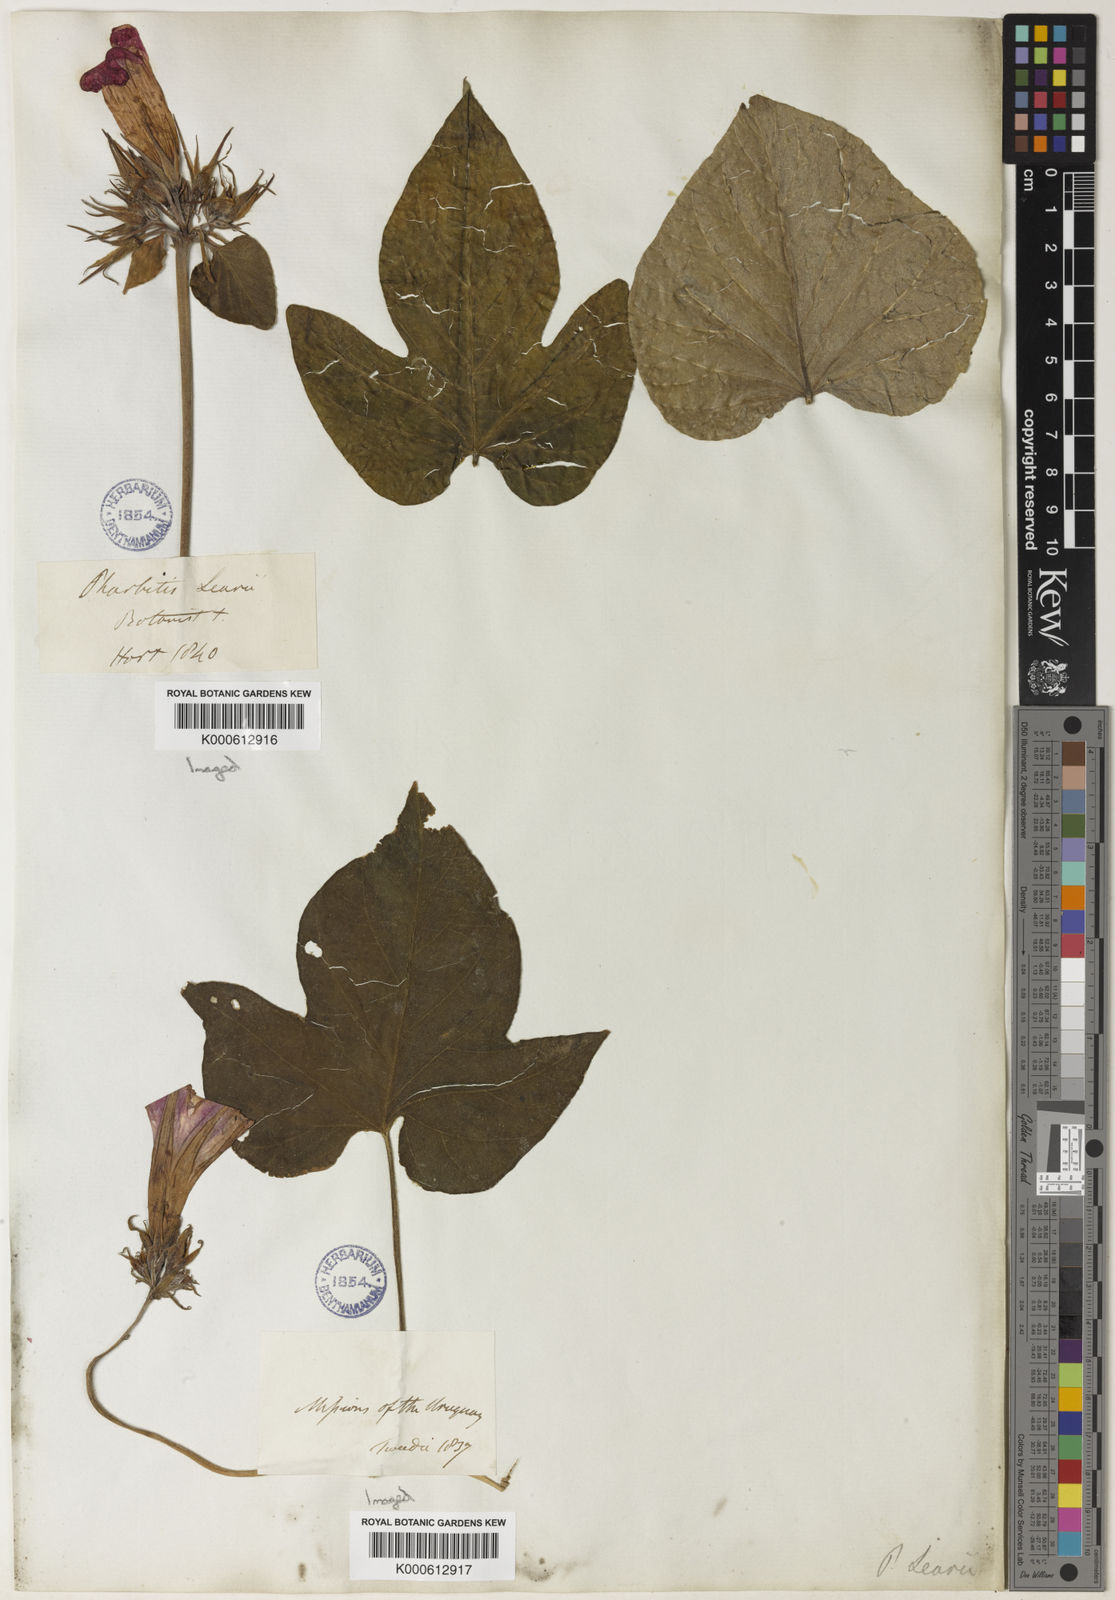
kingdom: Plantae
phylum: Tracheophyta
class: Magnoliopsida
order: Solanales
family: Convolvulaceae
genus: Ipomoea
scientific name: Ipomoea indica
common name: Blue dawnflower
